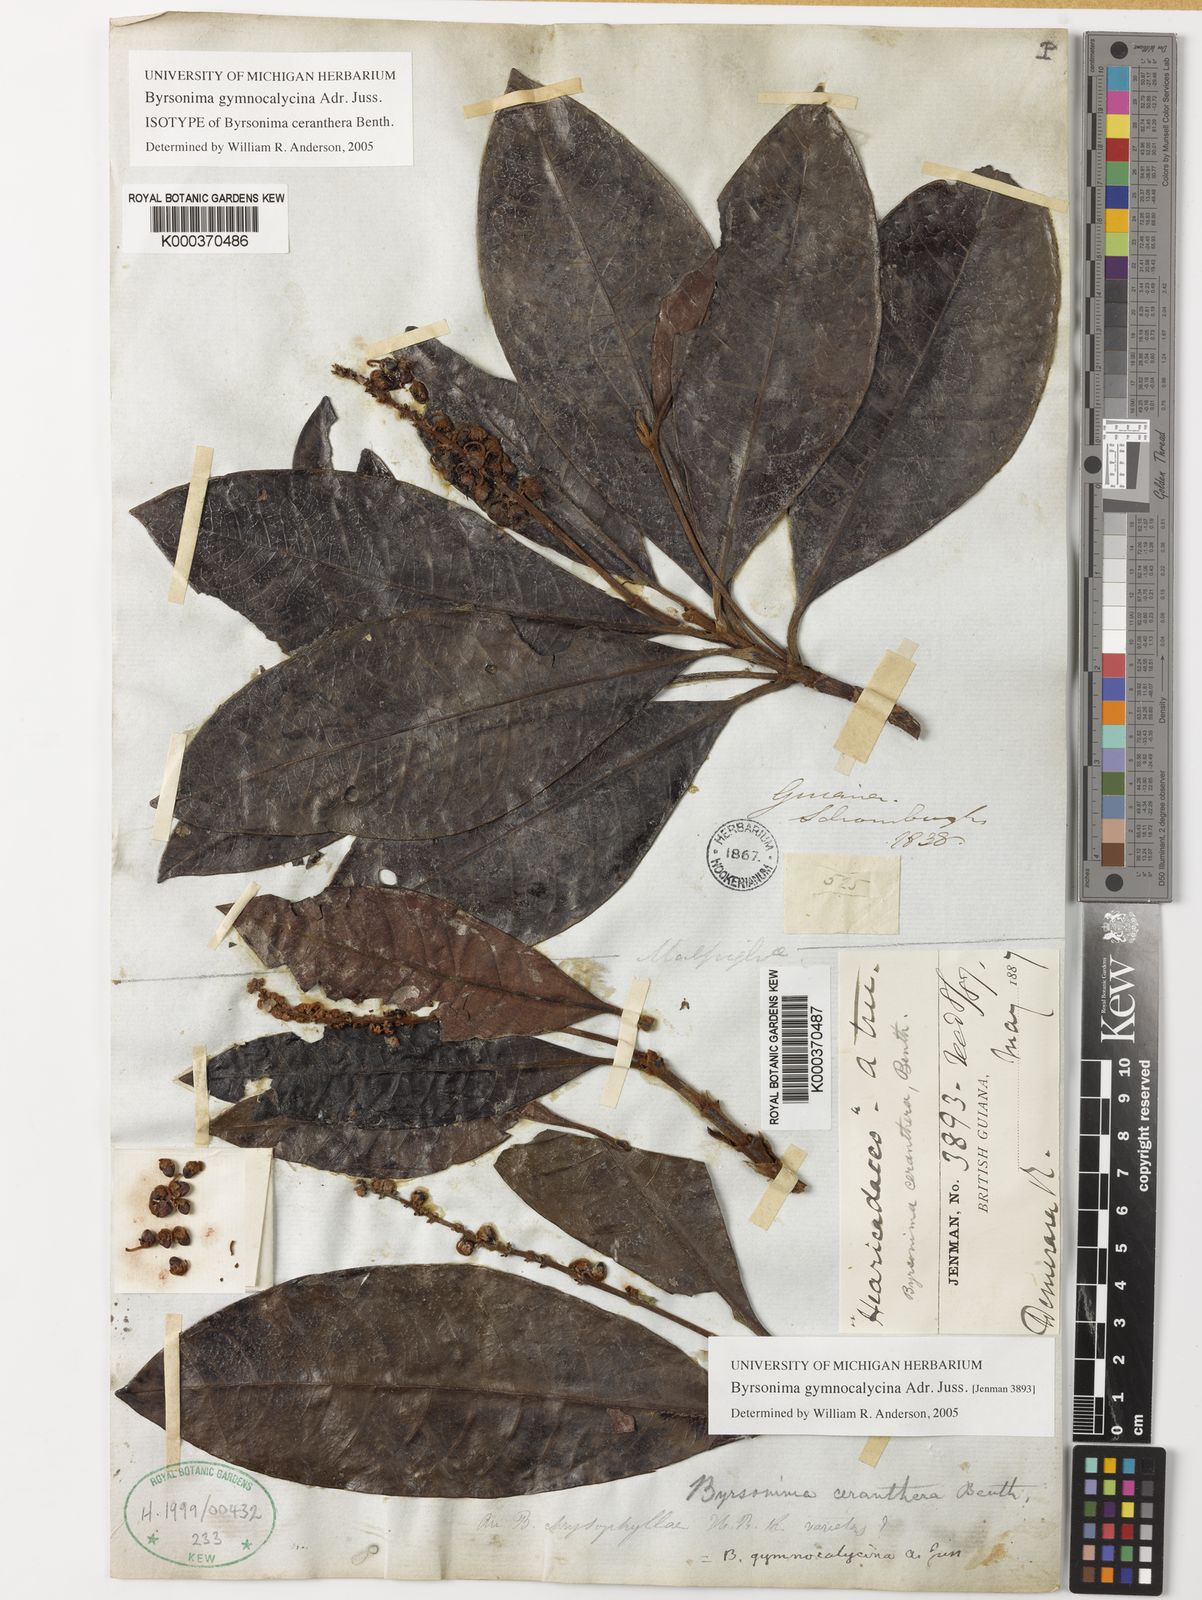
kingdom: Plantae
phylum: Tracheophyta
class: Magnoliopsida
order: Malpighiales
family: Malpighiaceae
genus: Byrsonima
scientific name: Byrsonima gymnocalycina
